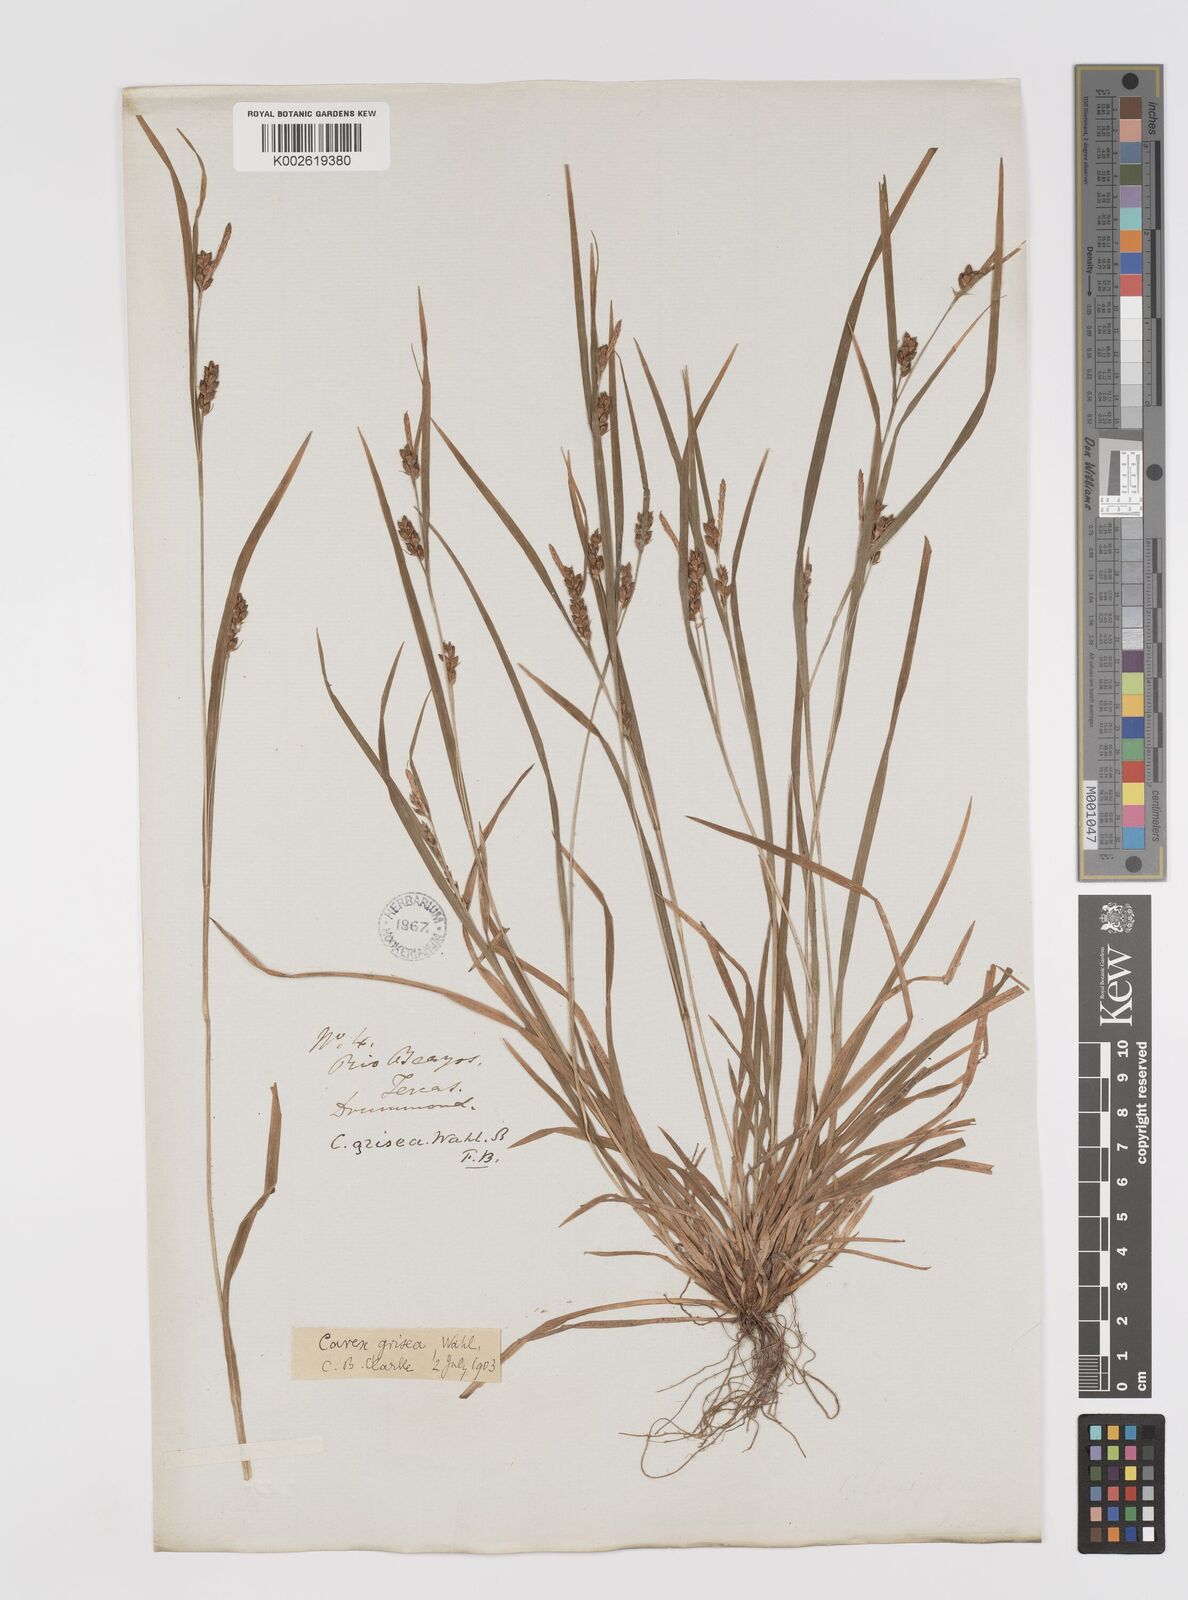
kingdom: Plantae
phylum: Tracheophyta
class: Liliopsida
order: Poales
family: Cyperaceae
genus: Carex
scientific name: Carex grisea
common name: Eastern narrow-leaved sedge
